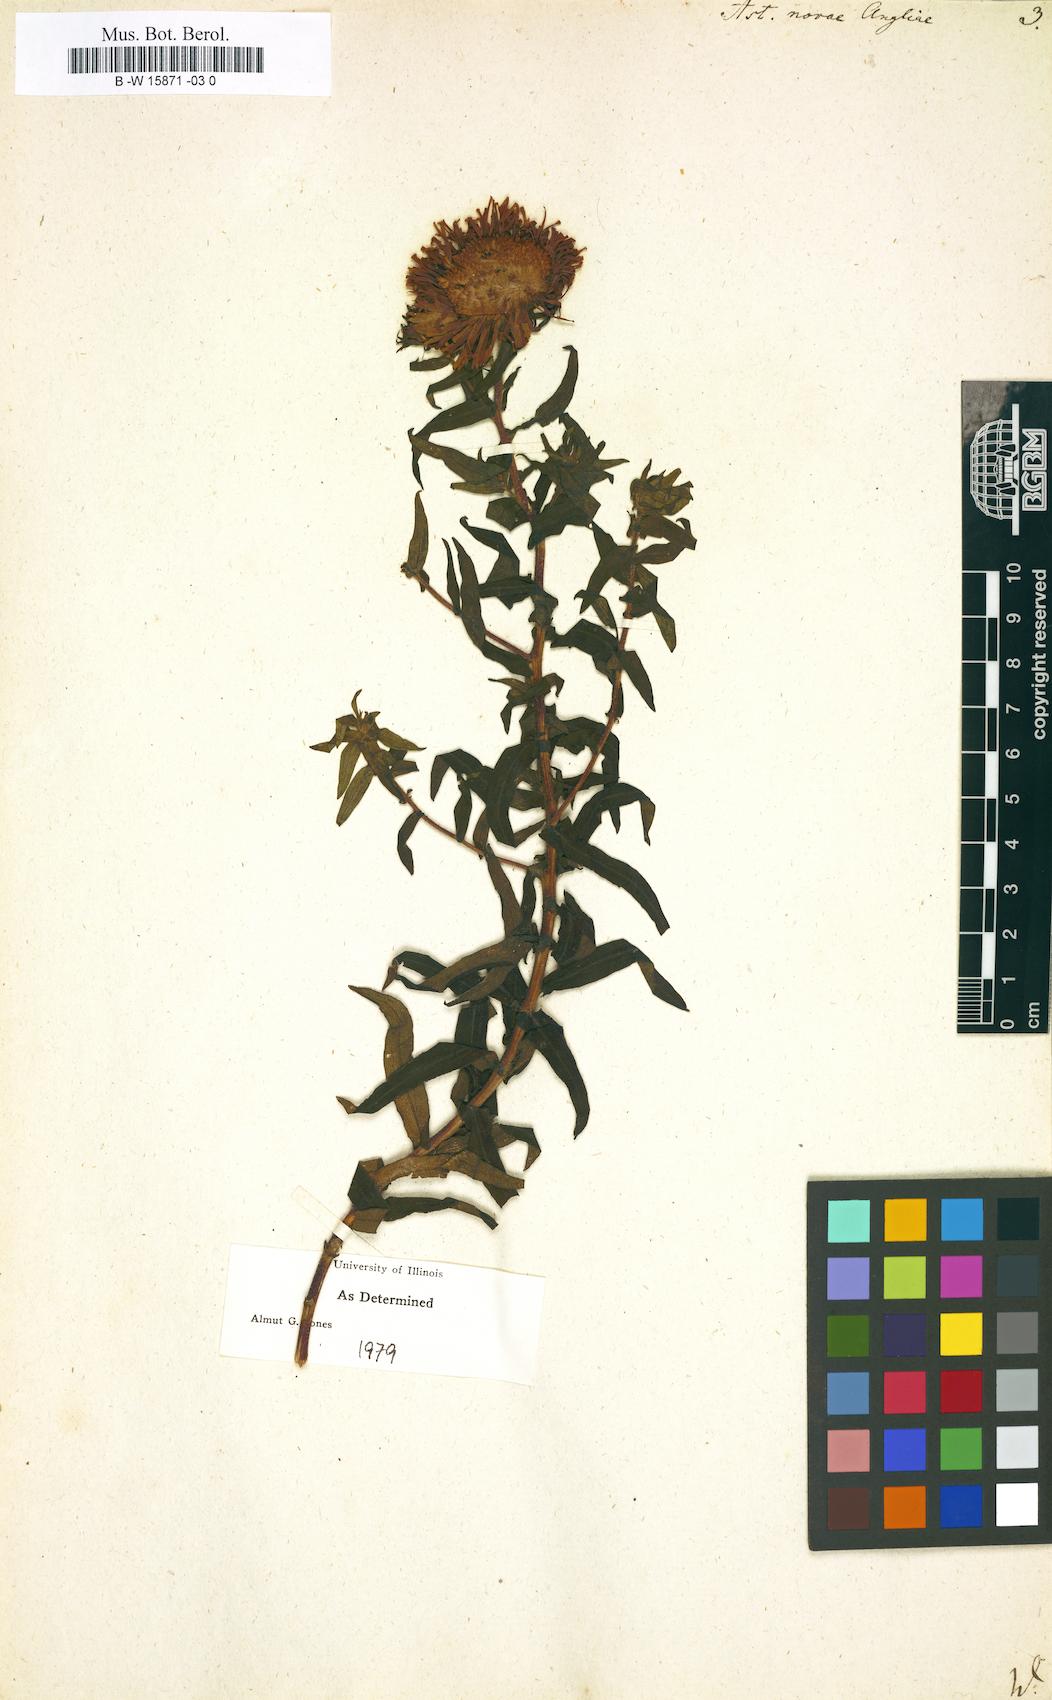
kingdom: Plantae
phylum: Tracheophyta
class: Magnoliopsida
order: Asterales
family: Asteraceae
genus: Symphyotrichum
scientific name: Symphyotrichum novae-angliae
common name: Michaelmas daisy
